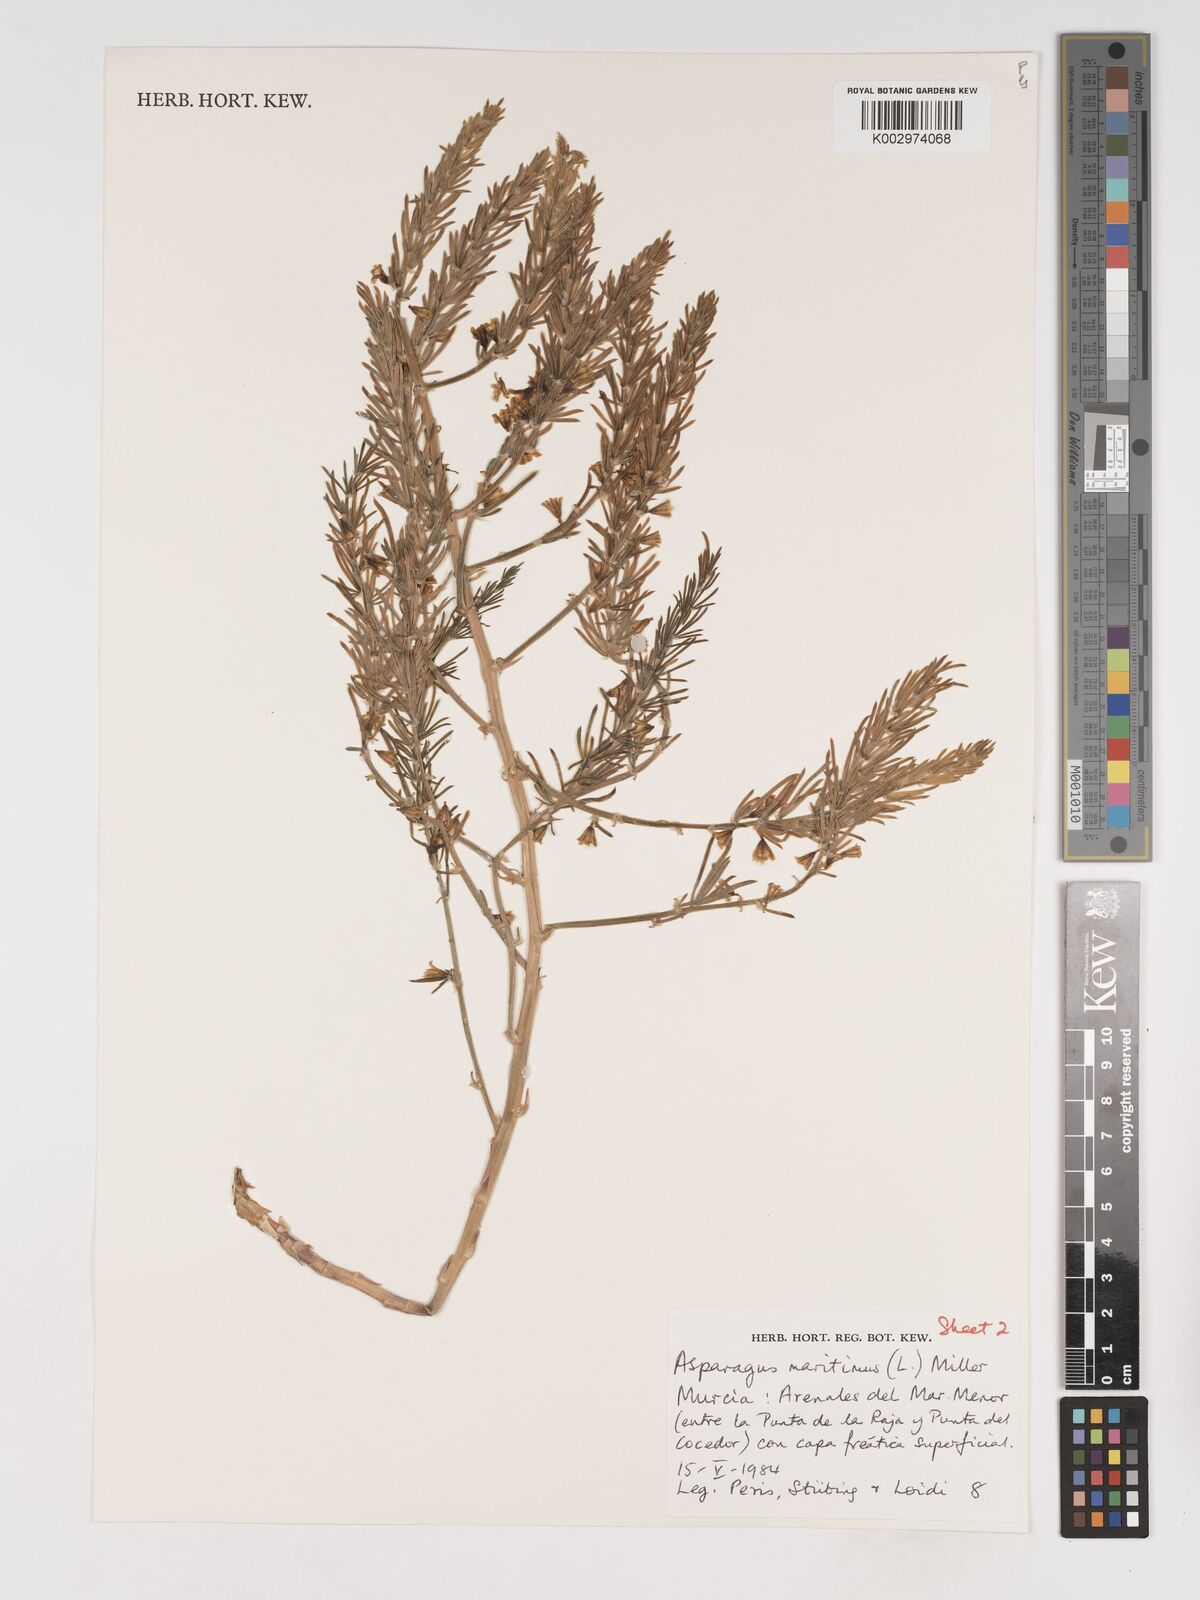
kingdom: Plantae
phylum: Tracheophyta
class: Liliopsida
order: Asparagales
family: Asparagaceae
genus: Asparagus
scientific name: Asparagus officinalis
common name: Garden asparagus
